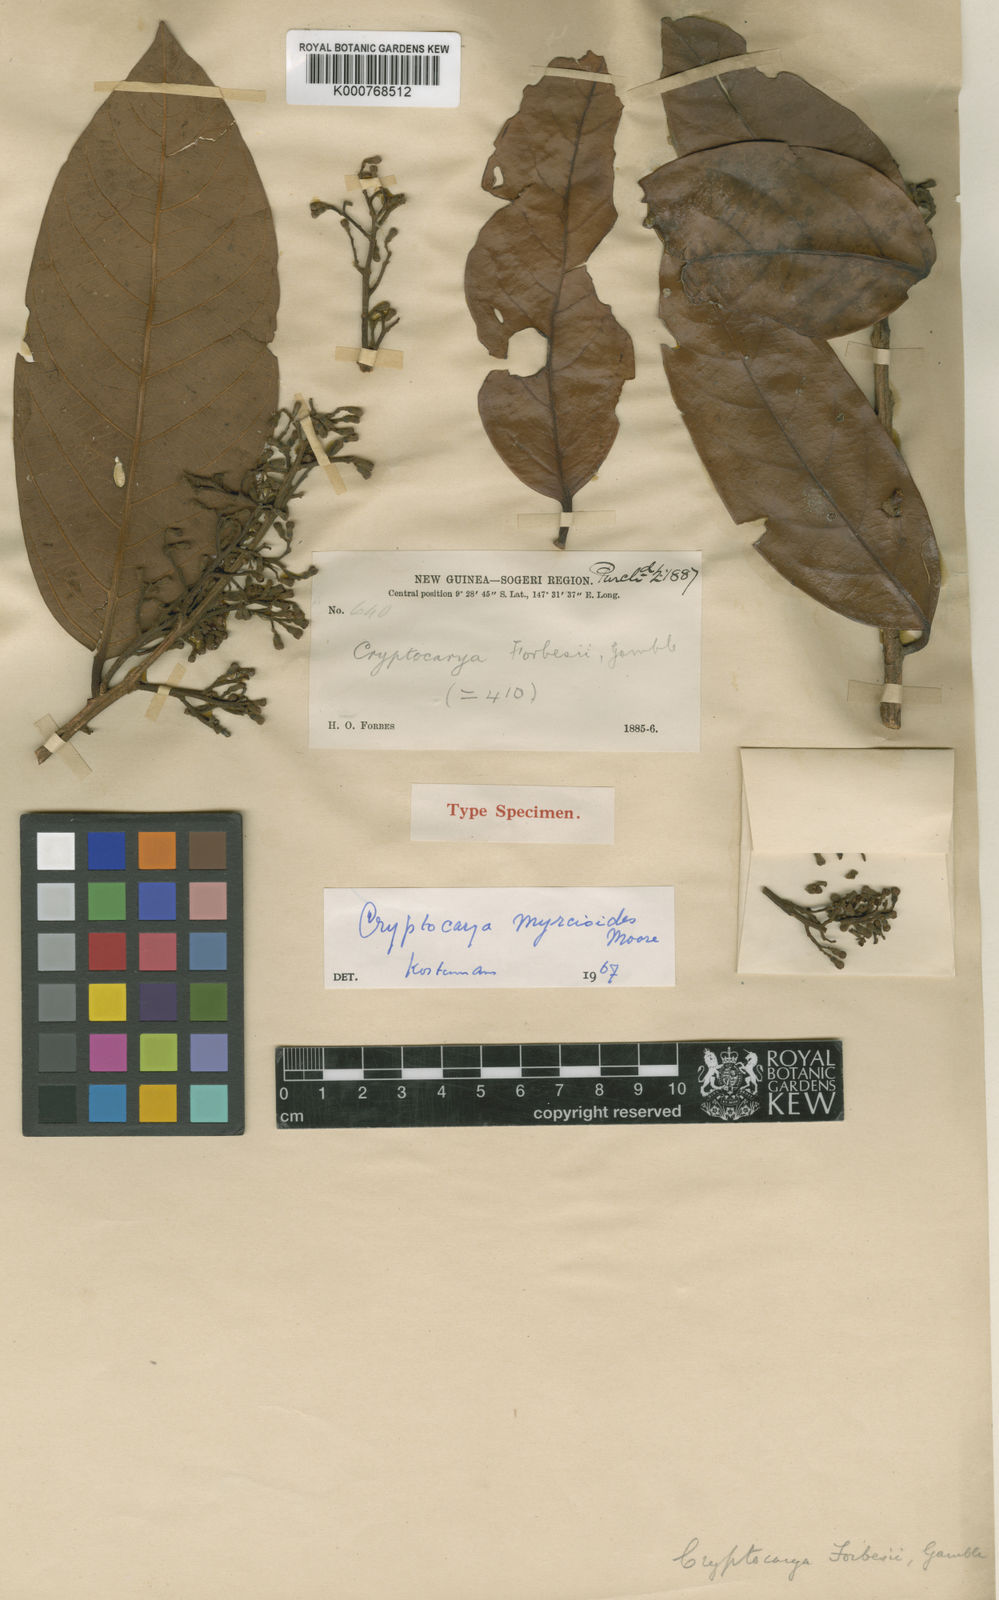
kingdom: Plantae
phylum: Tracheophyta
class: Magnoliopsida
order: Laurales
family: Lauraceae
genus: Cryptocarya
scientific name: Cryptocarya forbesii
